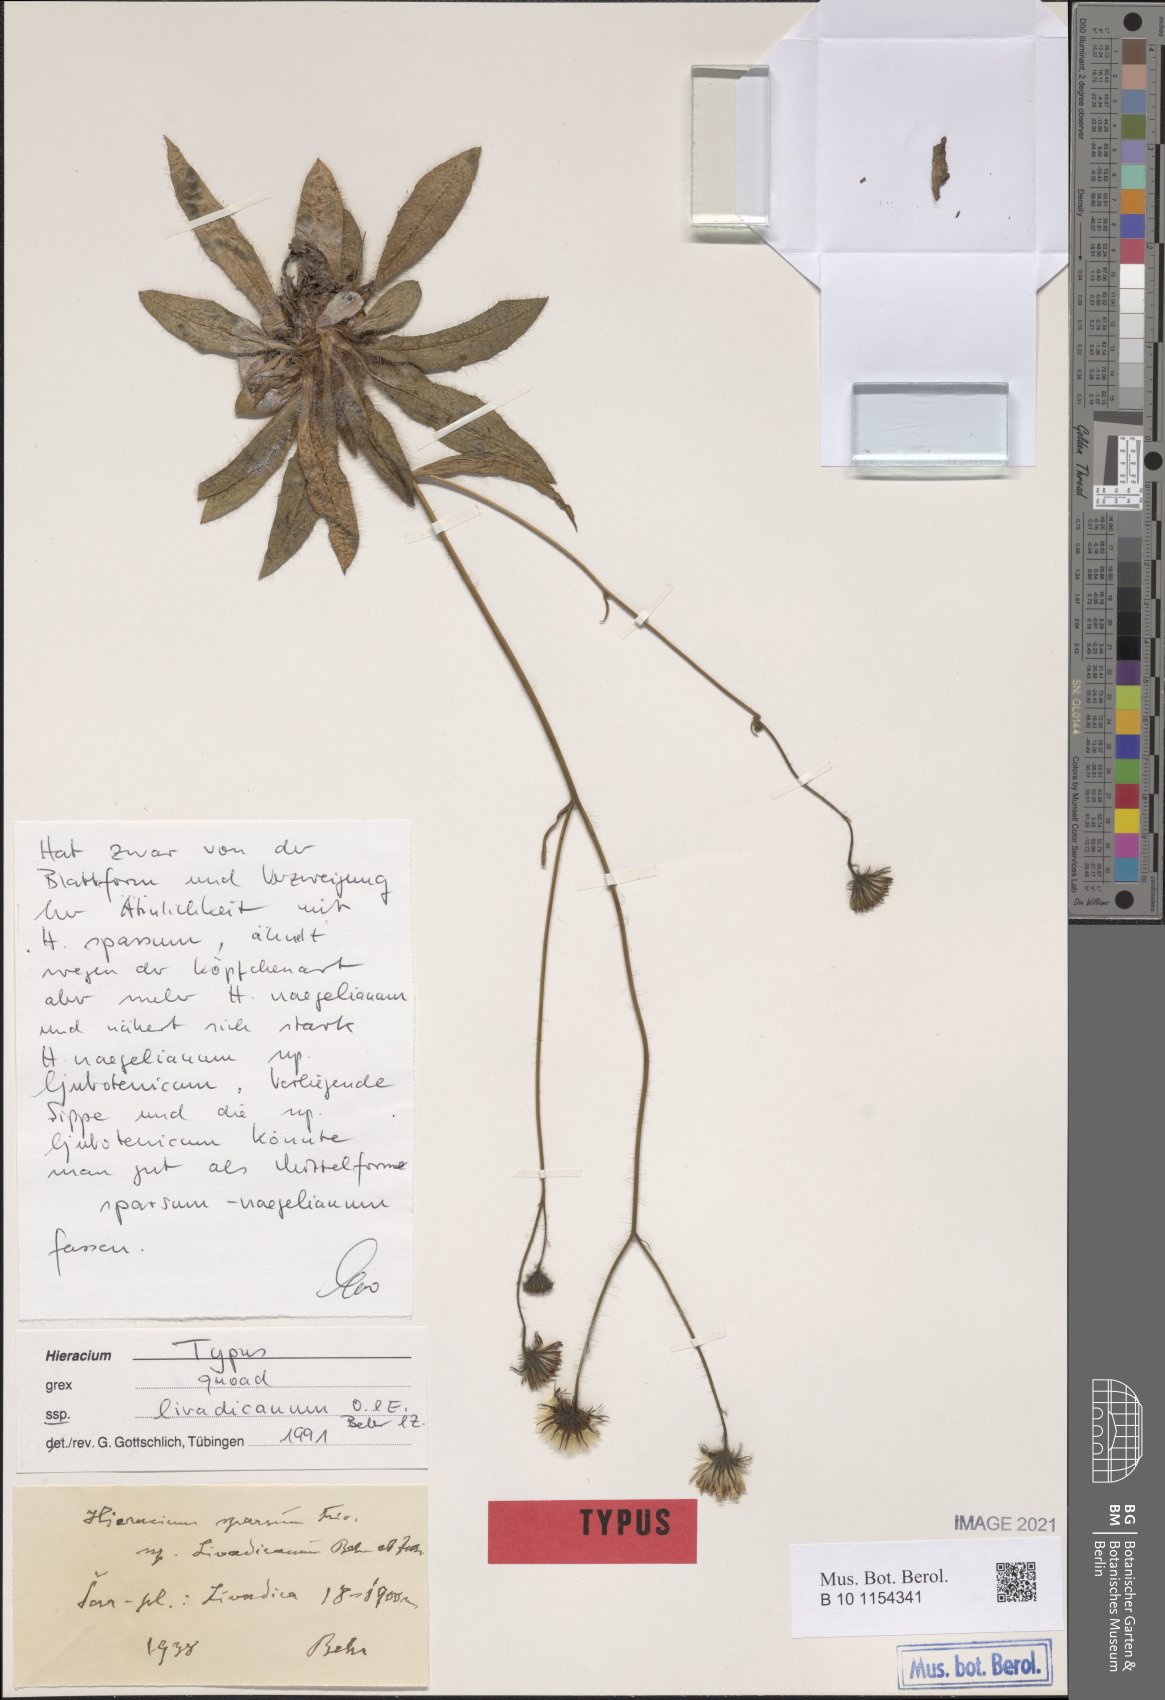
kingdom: Plantae
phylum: Tracheophyta
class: Magnoliopsida
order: Asterales
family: Asteraceae
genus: Hieracium
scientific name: Hieracium sparsum
